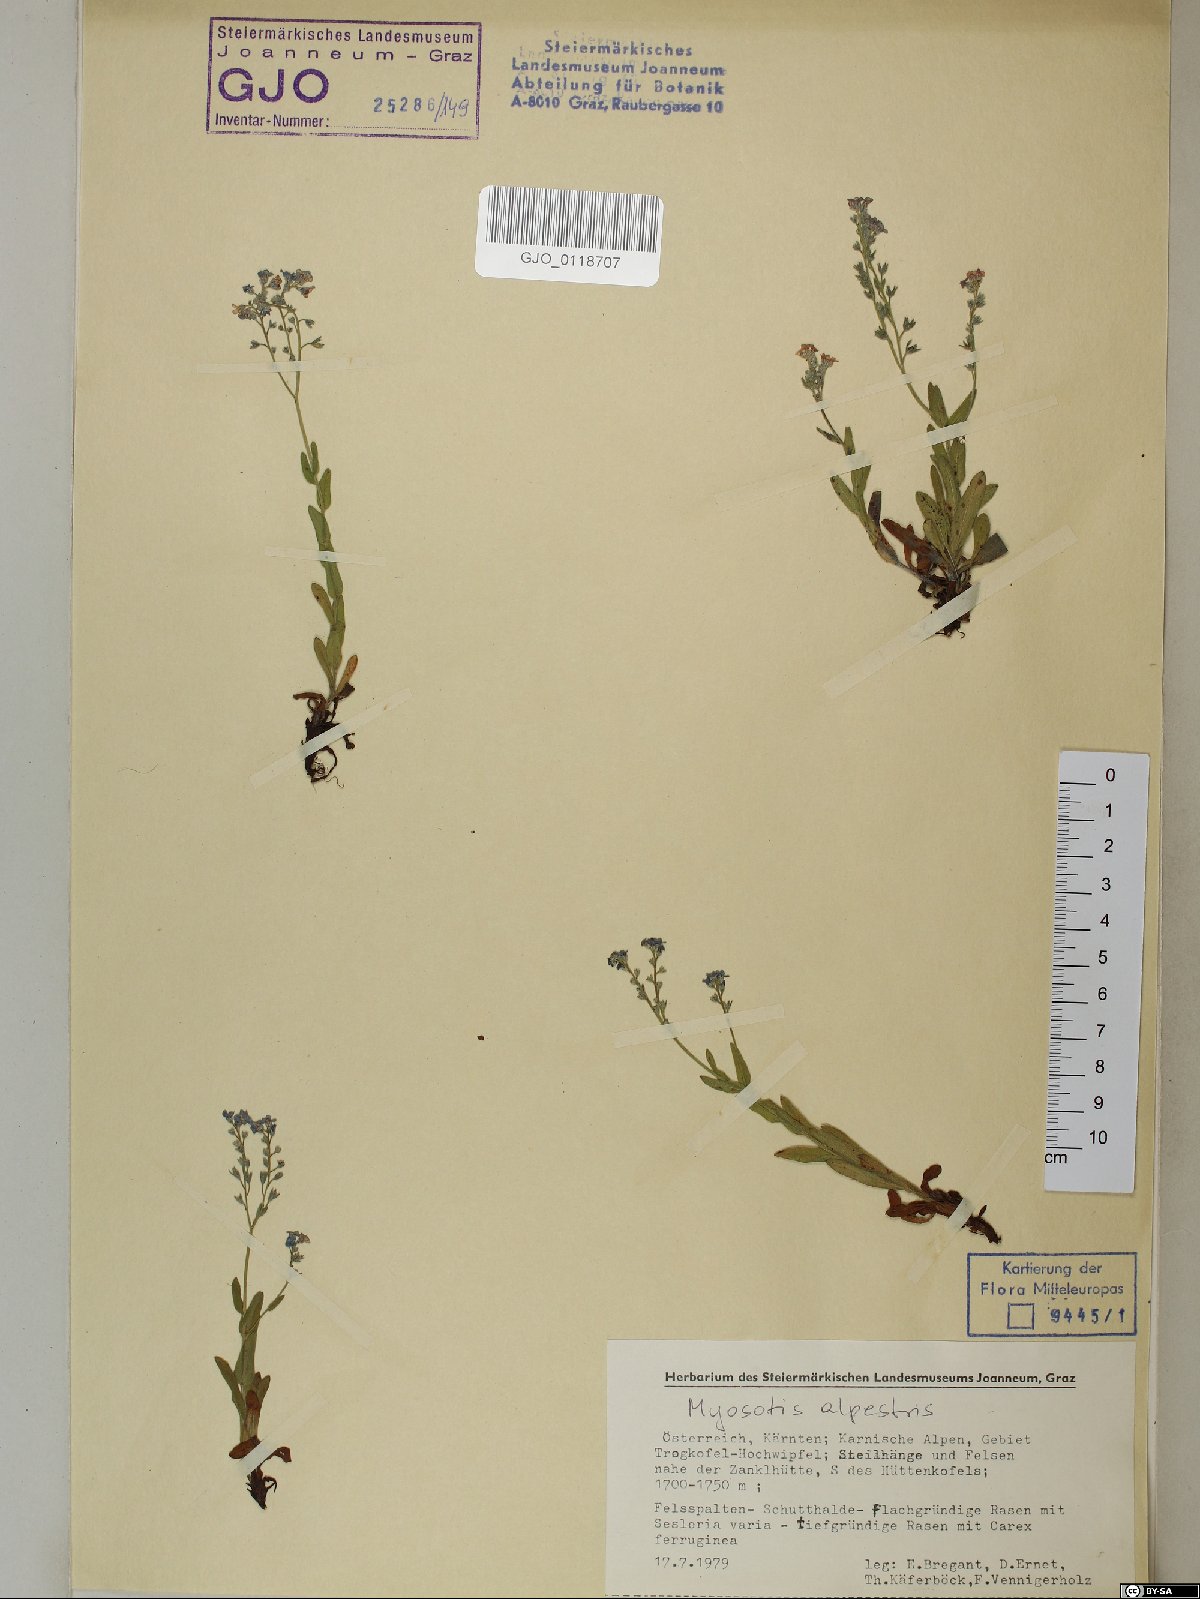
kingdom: Plantae
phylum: Tracheophyta
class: Magnoliopsida
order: Boraginales
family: Boraginaceae
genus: Myosotis
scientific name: Myosotis alpestris
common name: Alpine forget-me-not
